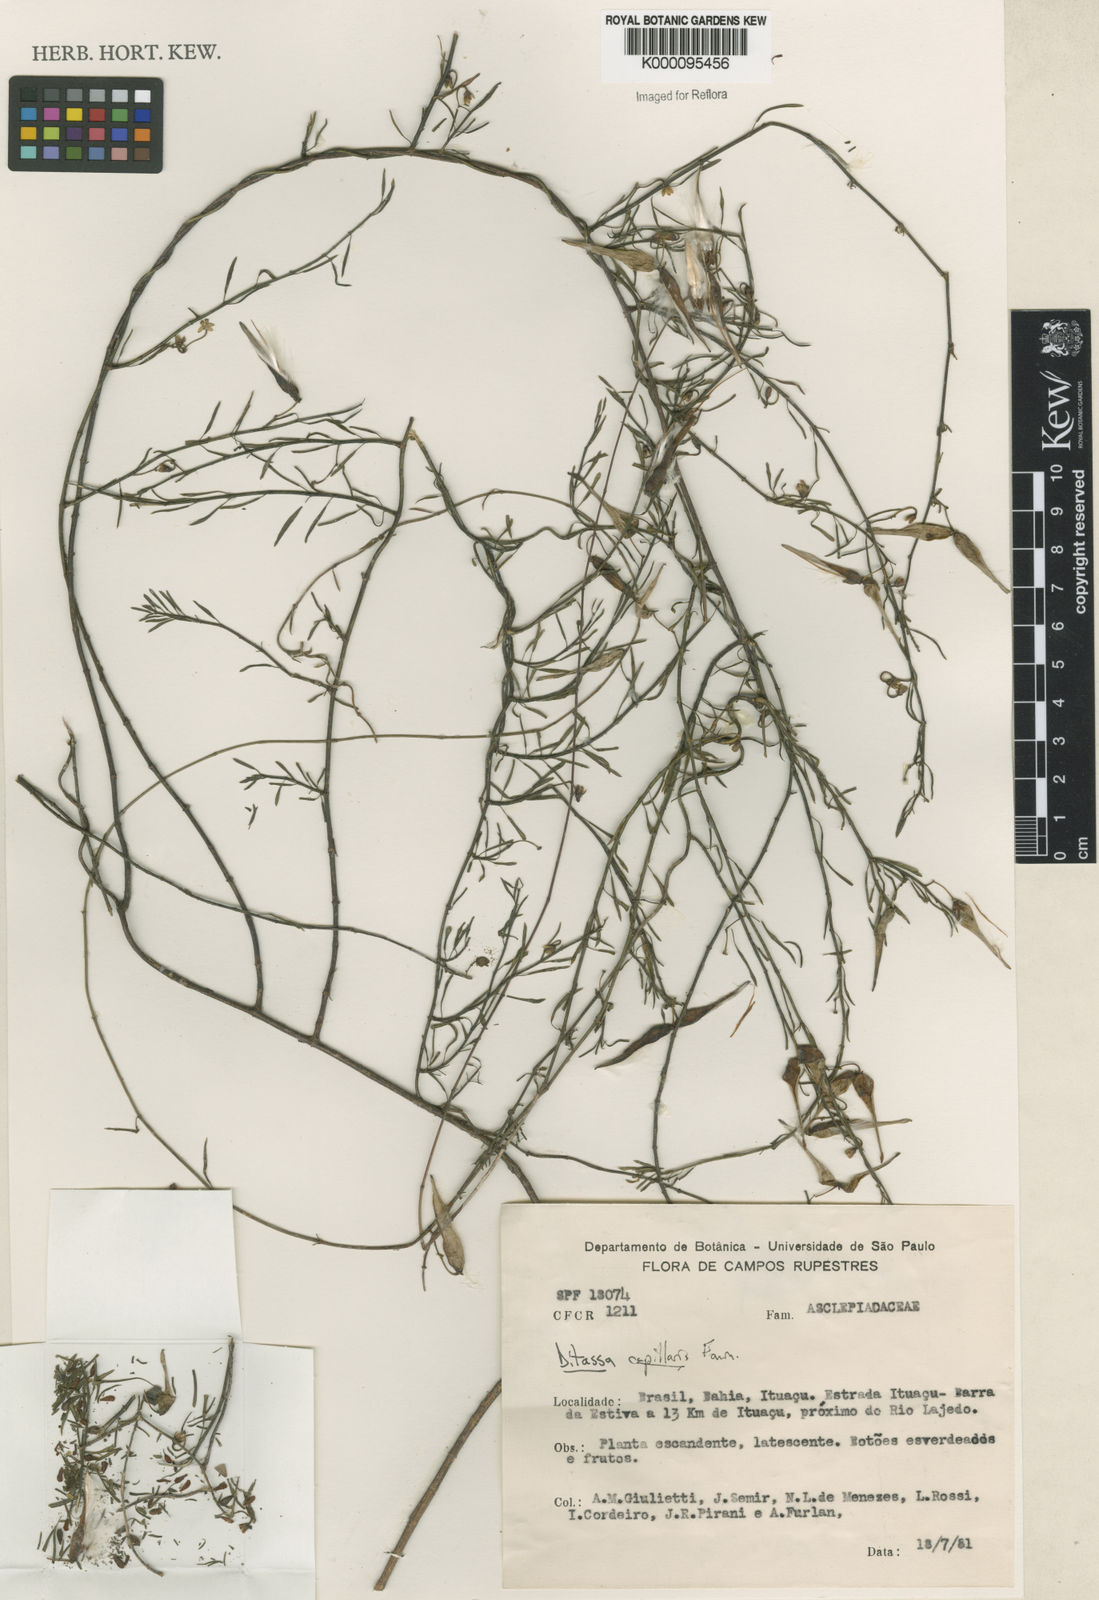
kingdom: Plantae
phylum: Tracheophyta
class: Magnoliopsida
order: Gentianales
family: Apocynaceae
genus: Ditassa
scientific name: Ditassa capillaris
